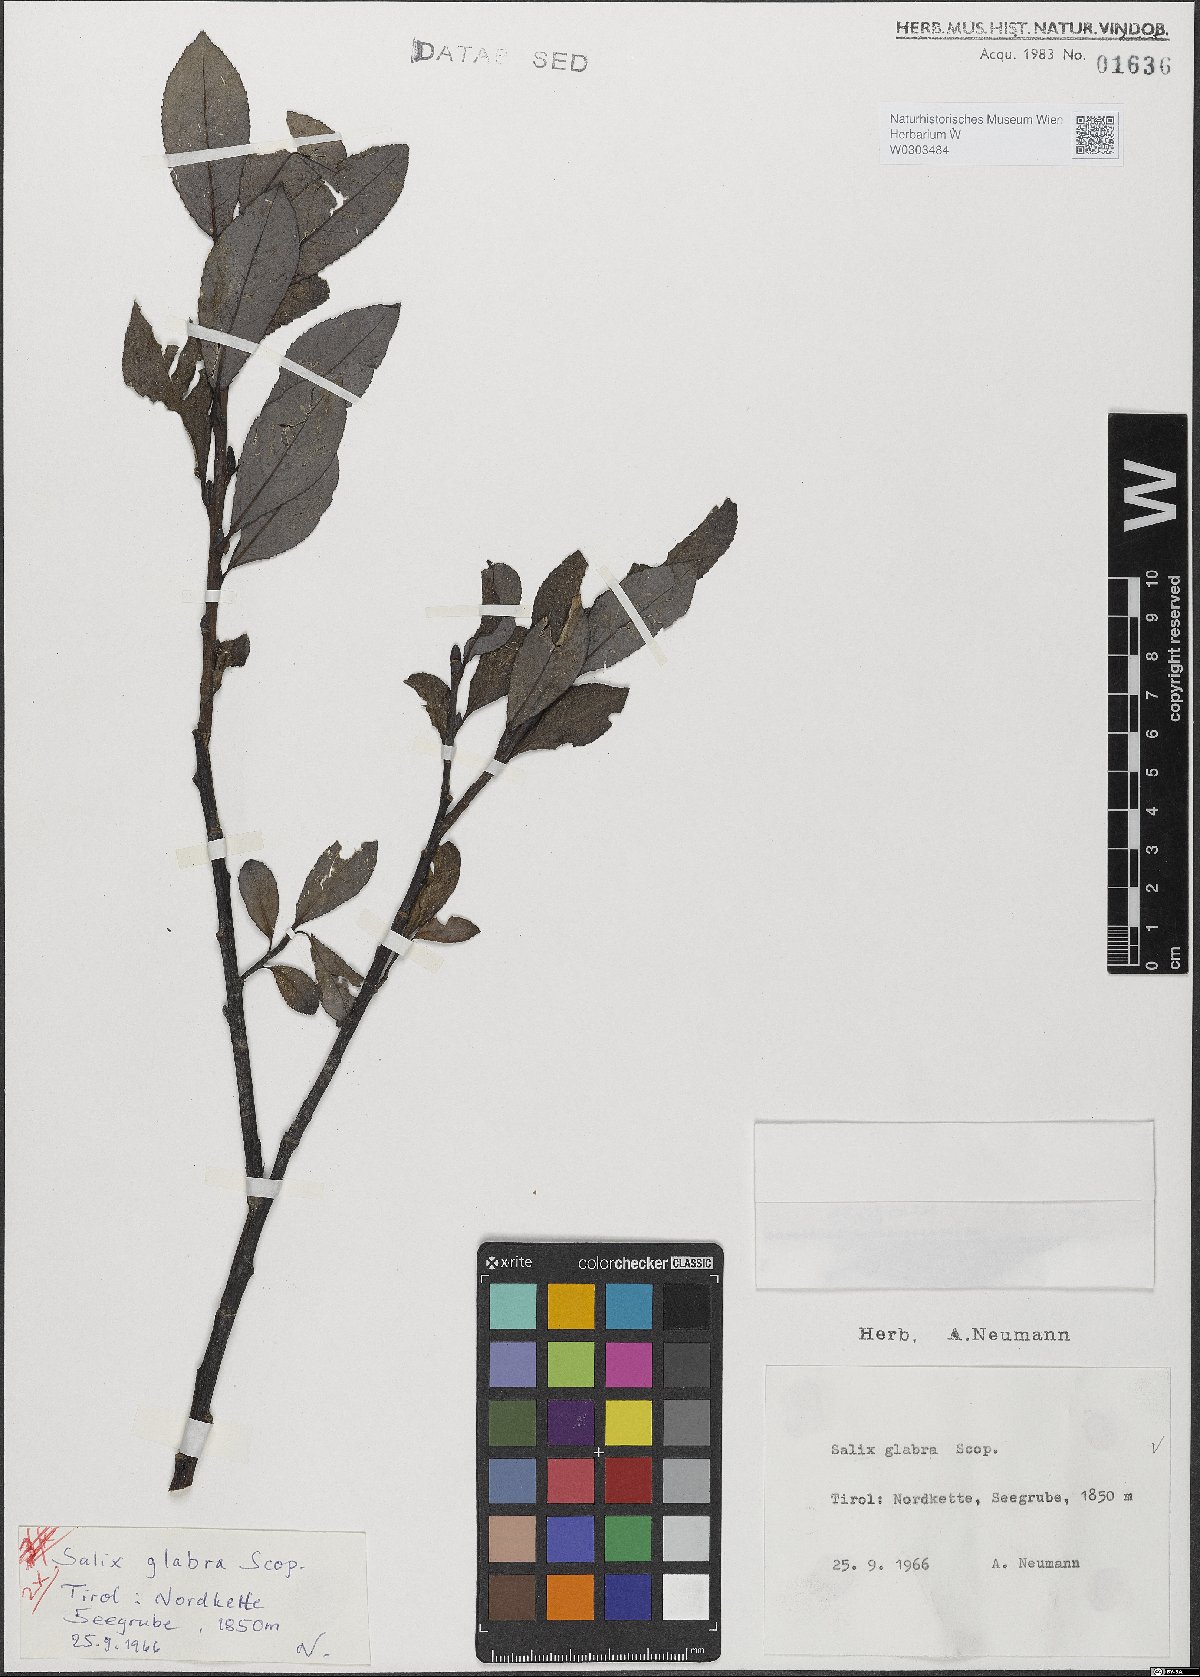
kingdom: Plantae
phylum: Tracheophyta
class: Magnoliopsida
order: Malpighiales
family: Salicaceae
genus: Salix
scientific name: Salix glabra
